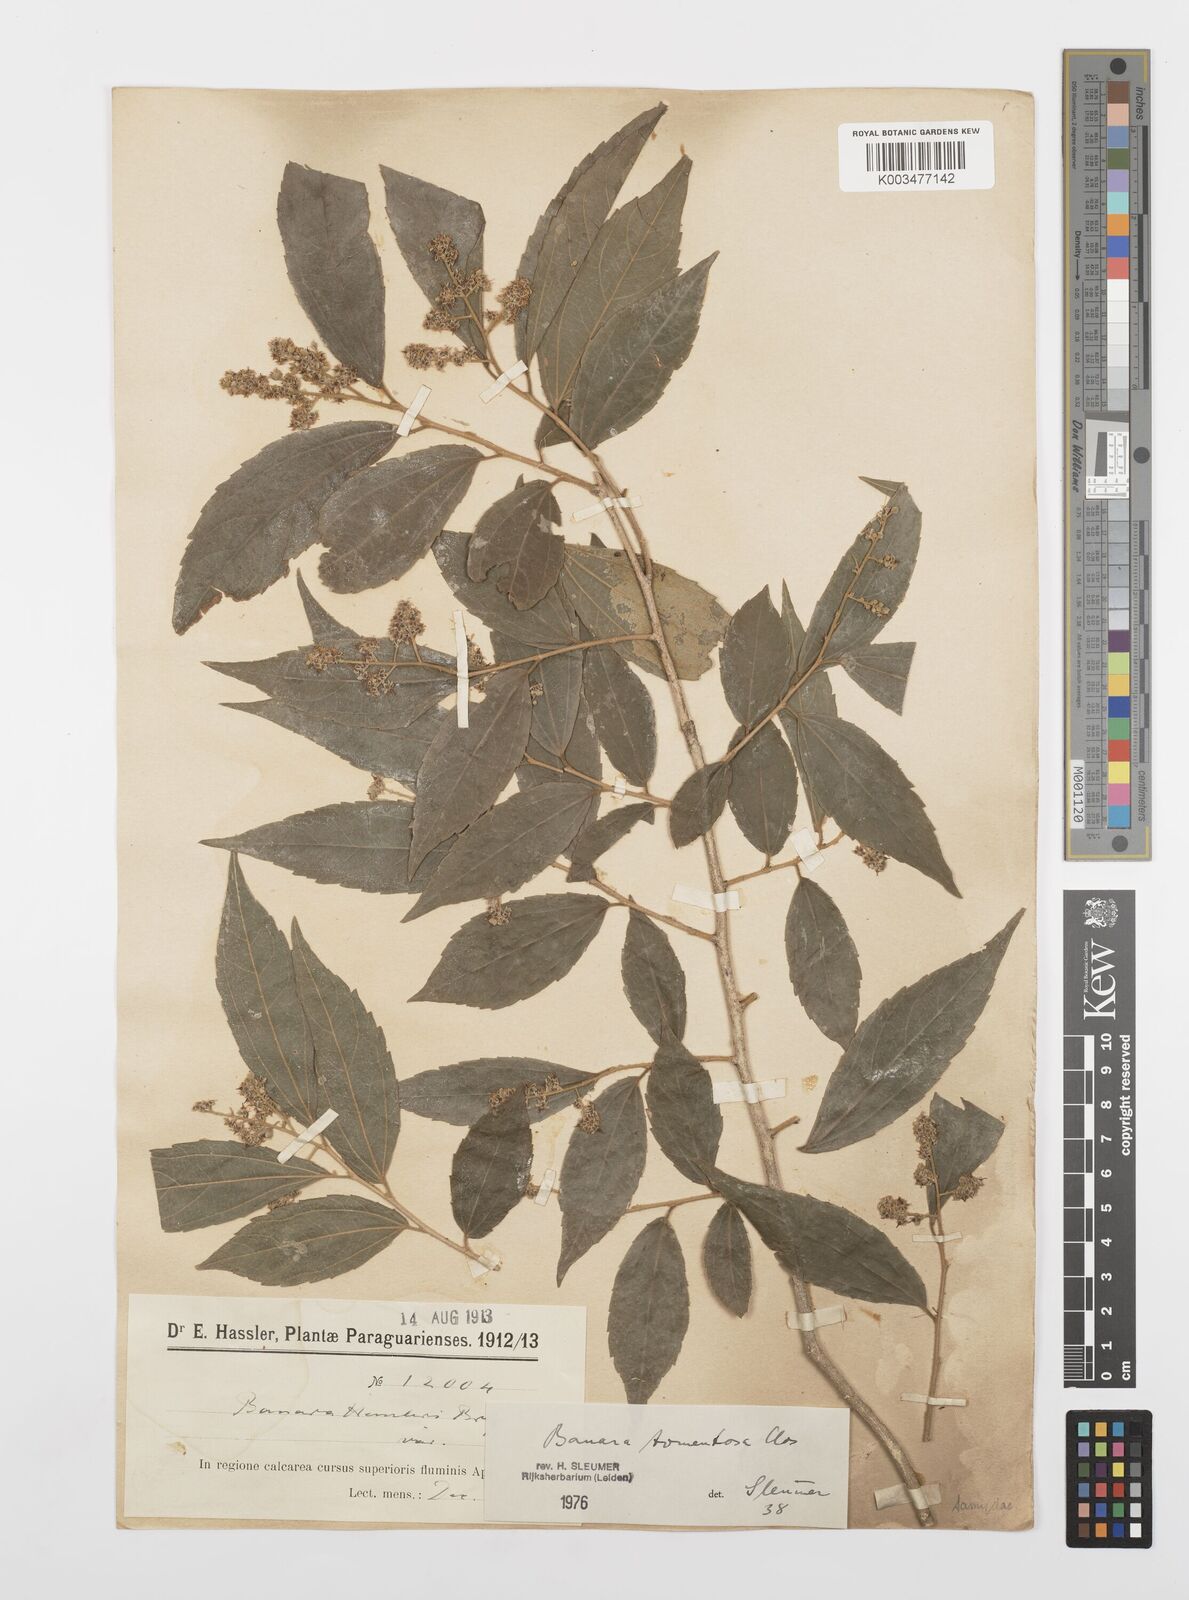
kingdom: Plantae
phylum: Tracheophyta
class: Magnoliopsida
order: Malpighiales
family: Salicaceae
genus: Banara
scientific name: Banara tomentosa
